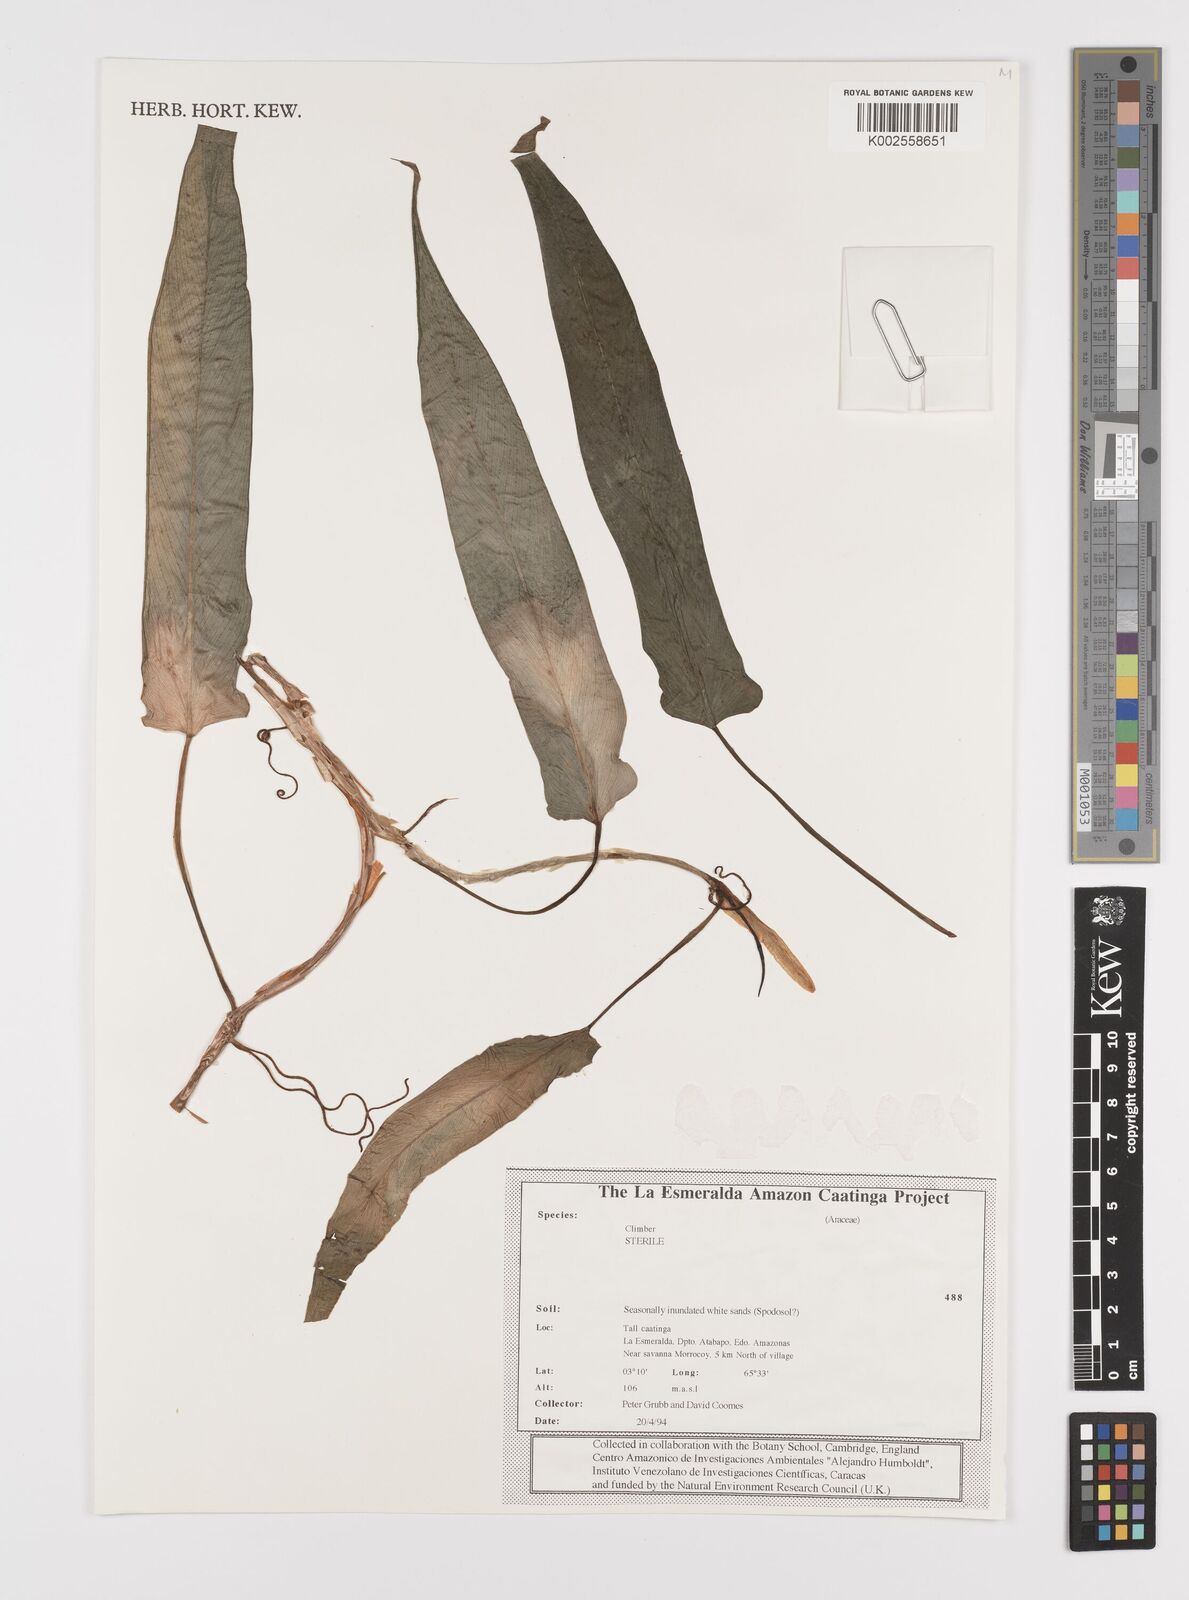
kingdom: Plantae
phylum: Tracheophyta
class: Liliopsida
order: Alismatales
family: Araceae
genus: Philodendron
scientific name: Philodendron brevispathum
